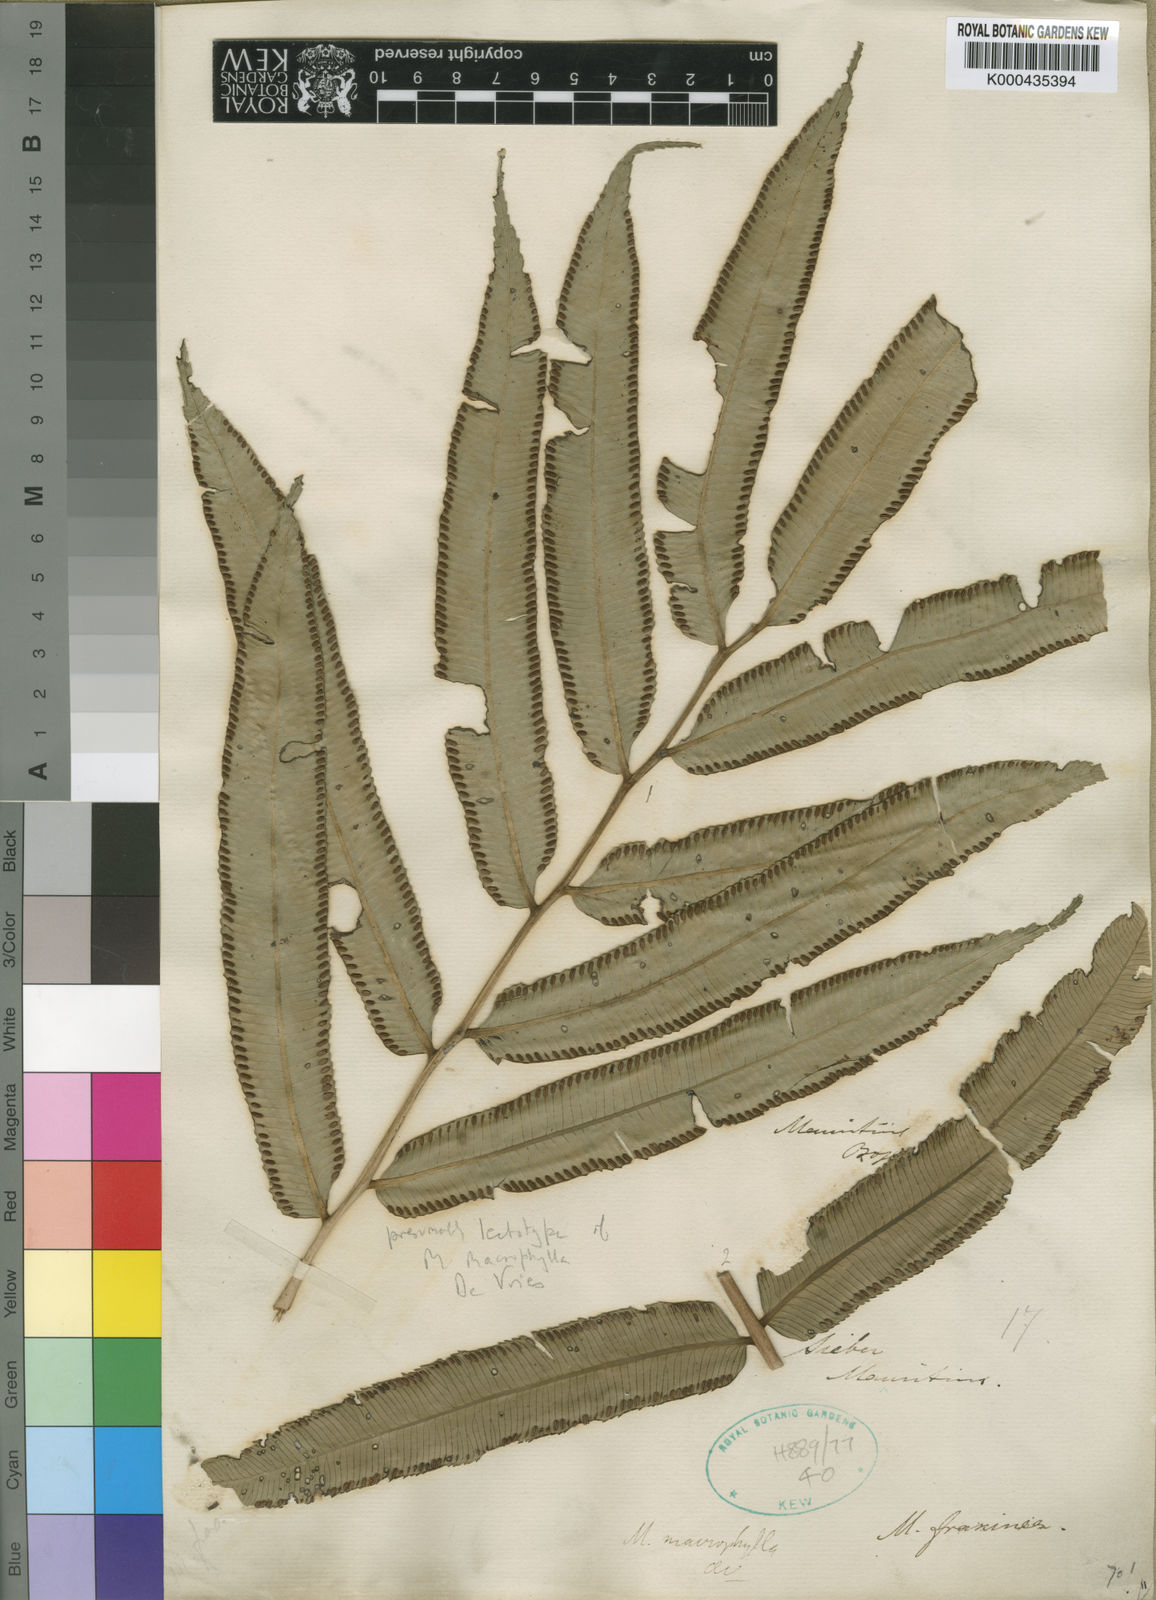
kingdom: Plantae
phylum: Tracheophyta
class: Polypodiopsida
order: Marattiales
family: Marattiaceae
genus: Ptisana
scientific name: Ptisana fraxinea
